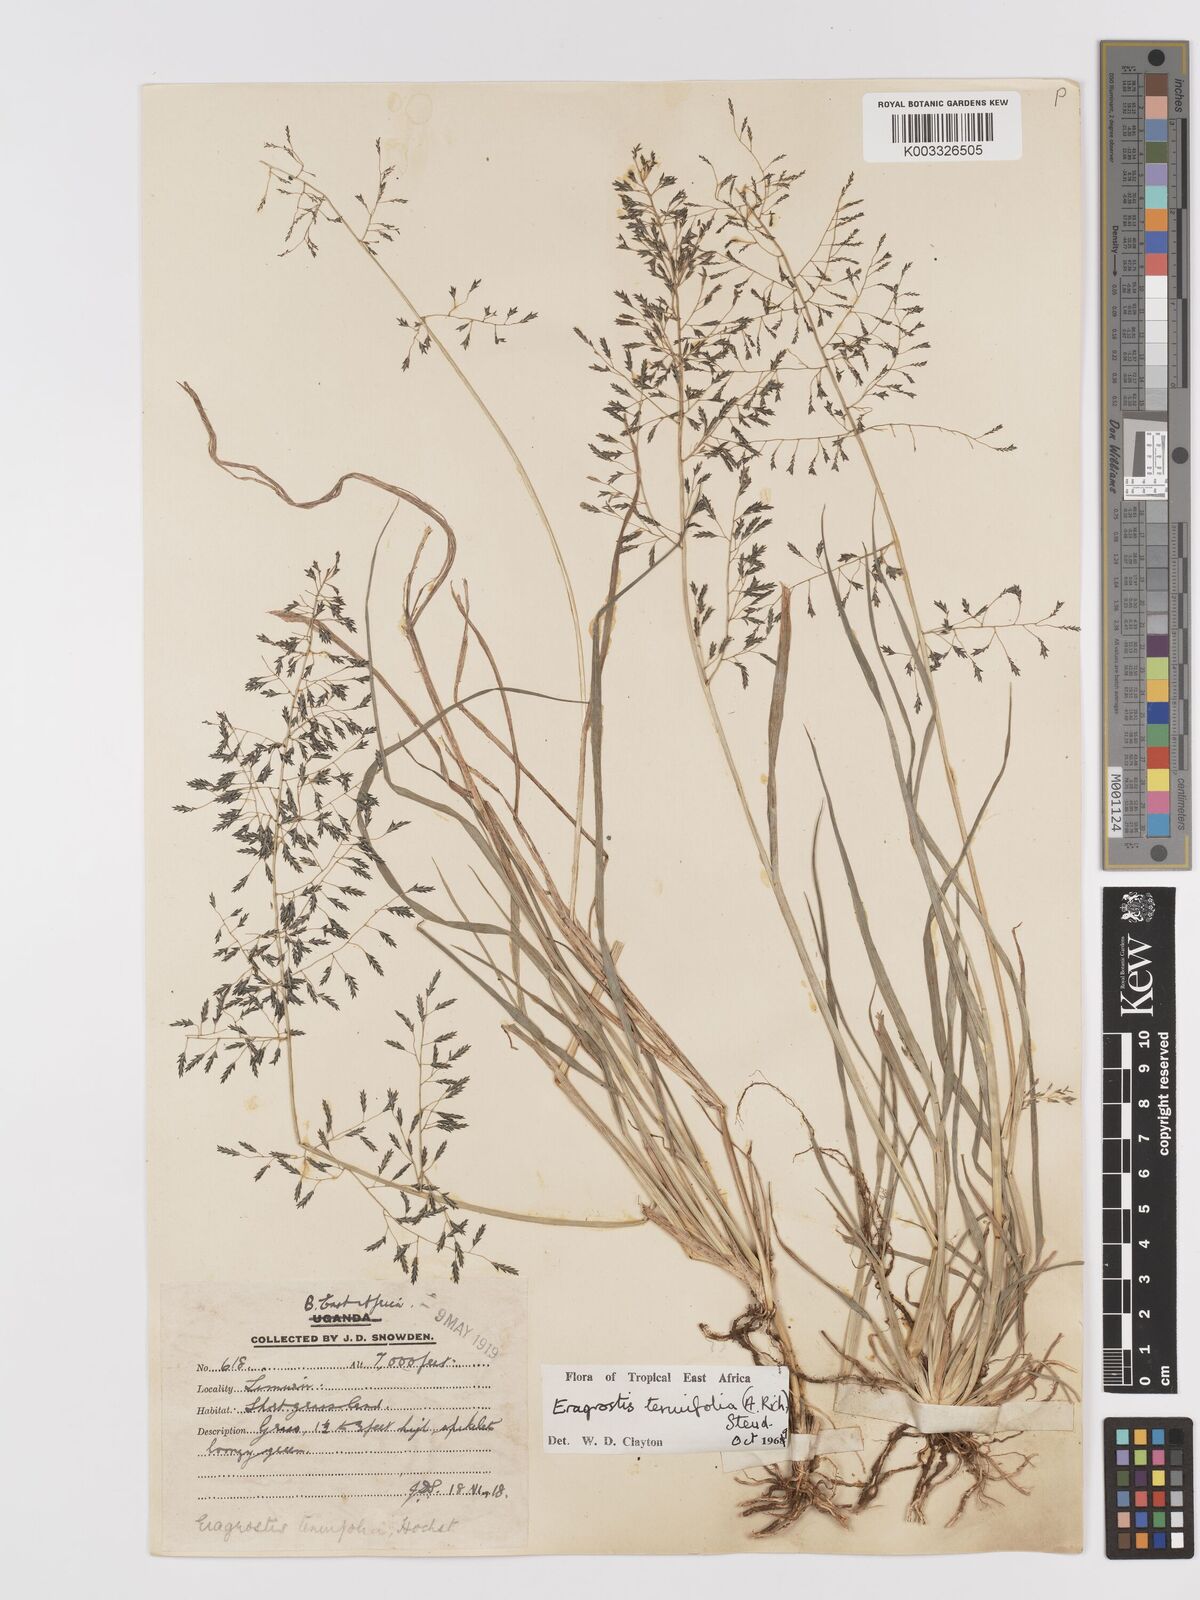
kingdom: Plantae
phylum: Tracheophyta
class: Liliopsida
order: Poales
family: Poaceae
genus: Eragrostis
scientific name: Eragrostis tenuifolia
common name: Elastic grass
